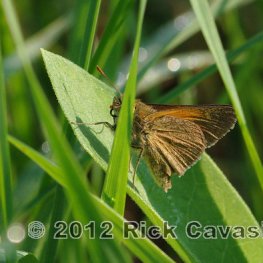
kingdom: Animalia
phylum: Arthropoda
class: Insecta
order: Lepidoptera
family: Hesperiidae
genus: Polites
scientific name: Polites themistocles
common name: Tawny-edged Skipper
